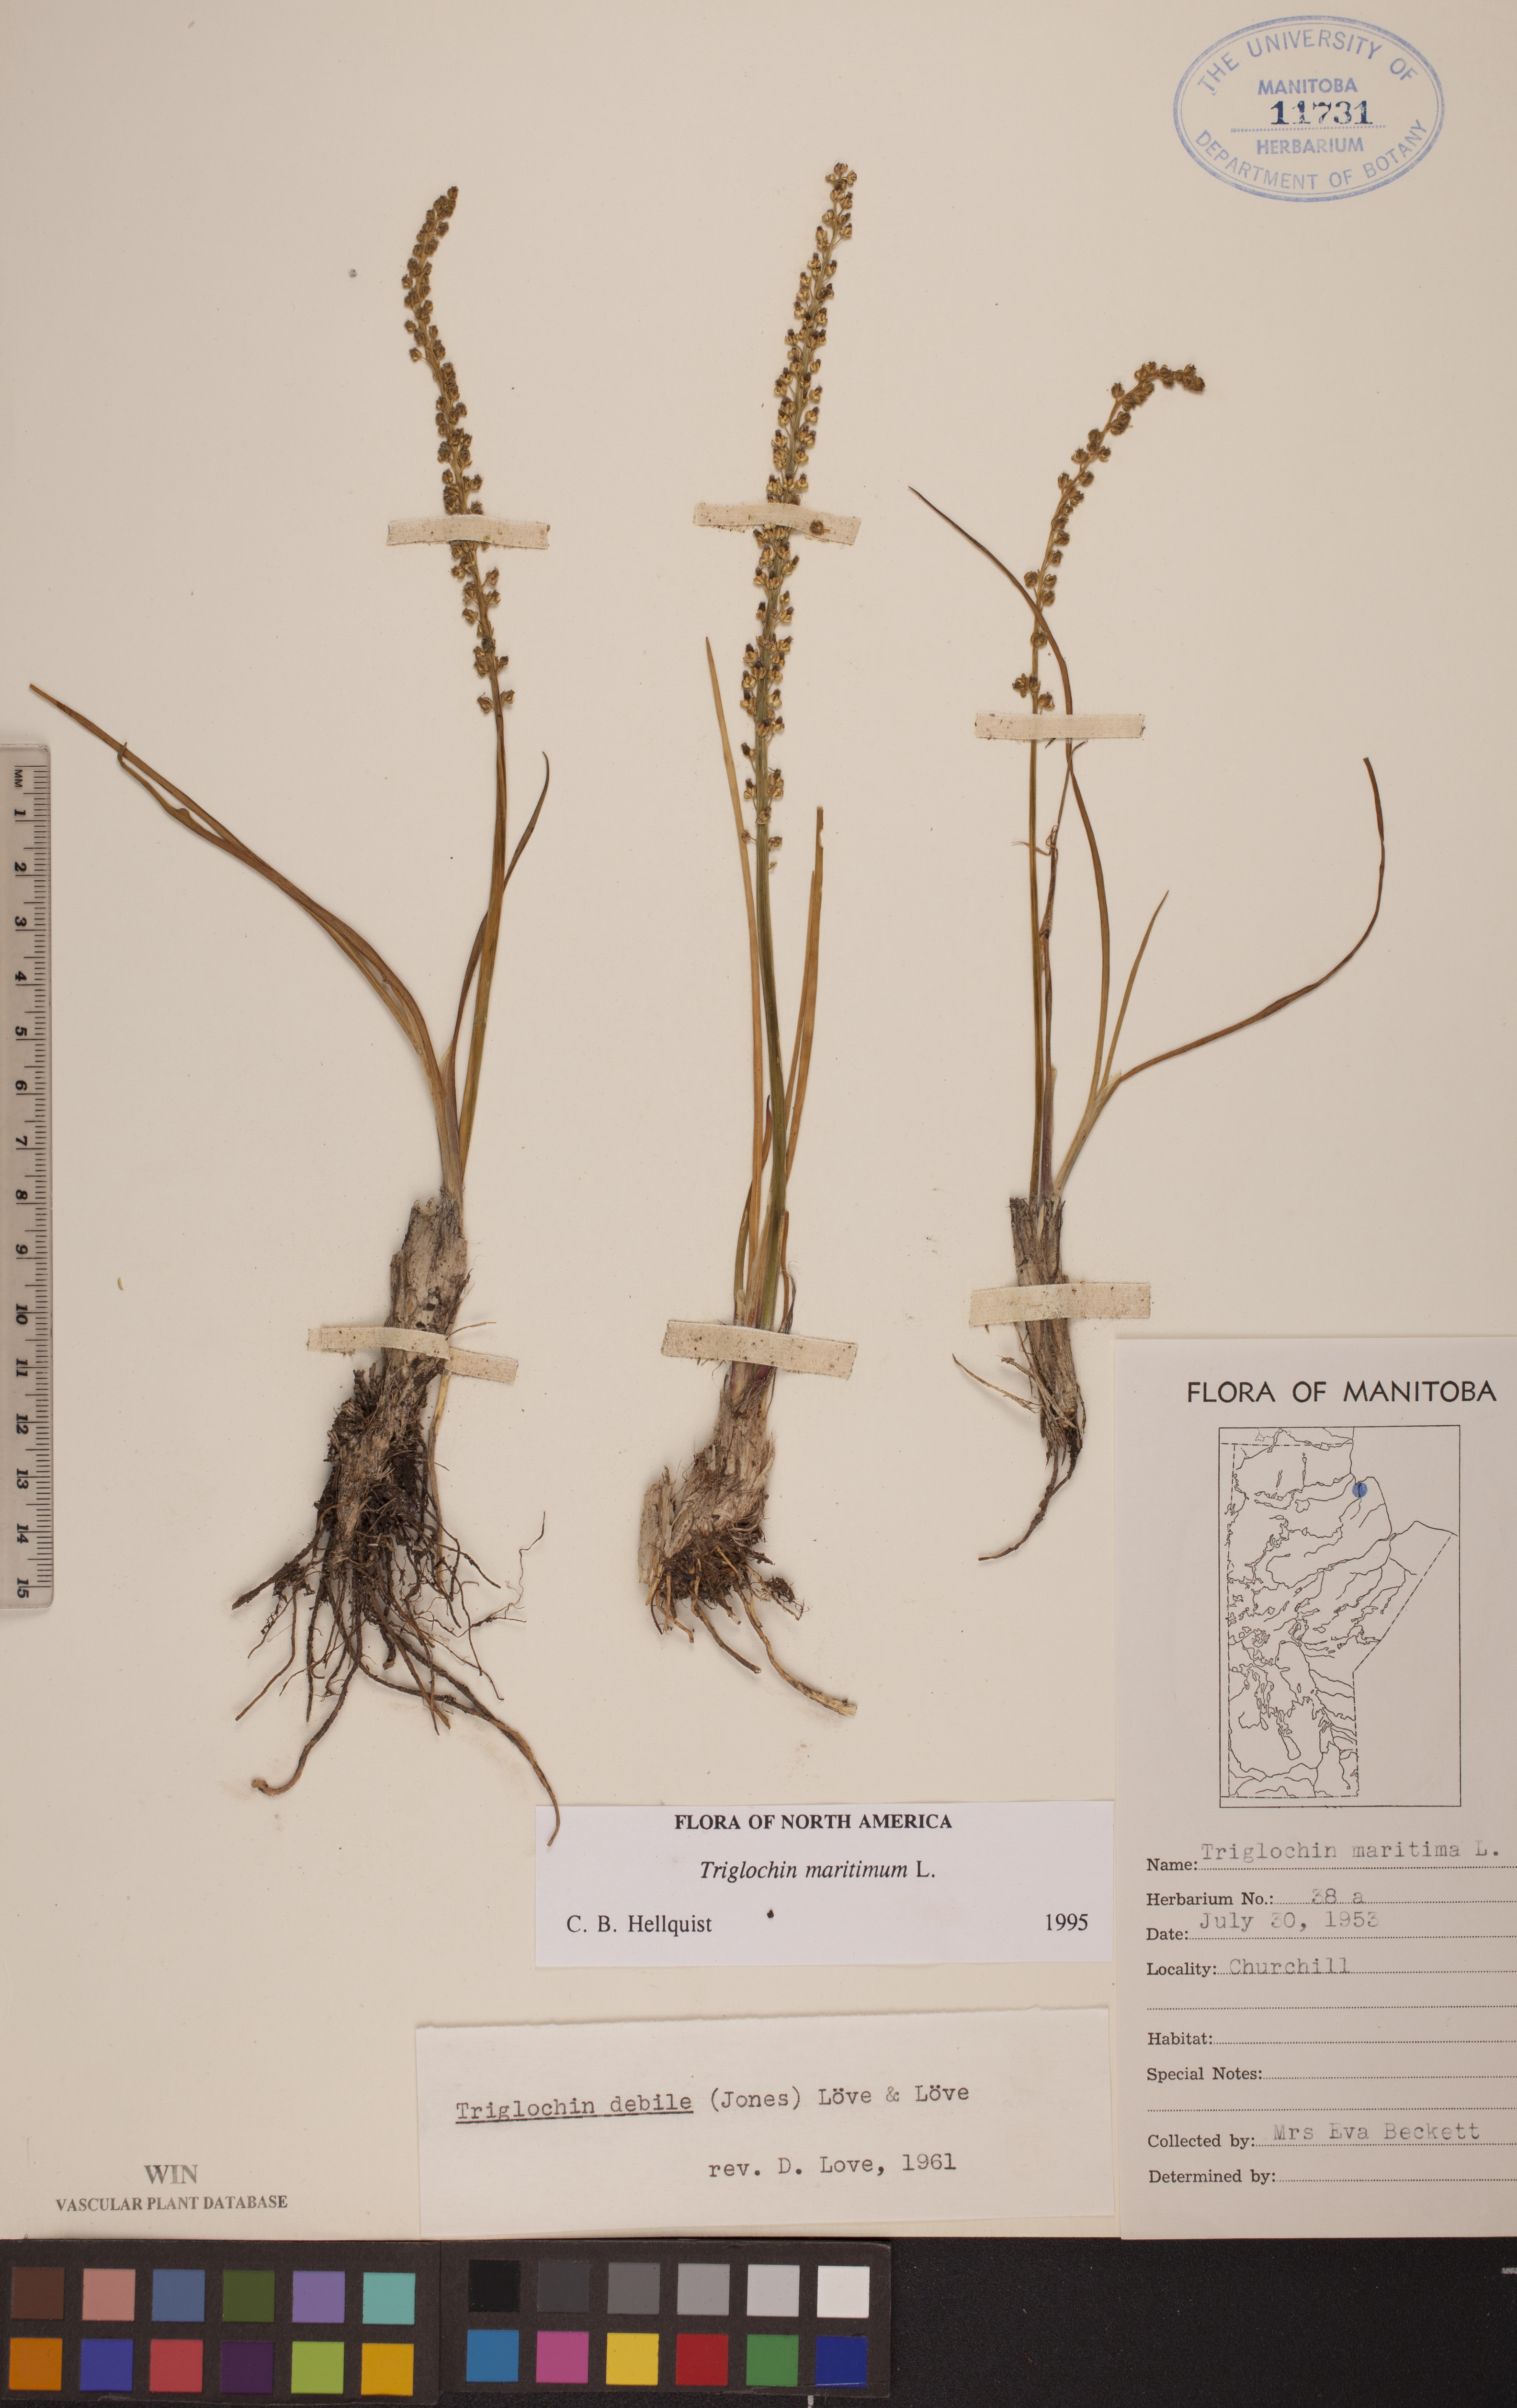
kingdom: Plantae
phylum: Tracheophyta
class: Liliopsida
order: Alismatales
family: Juncaginaceae
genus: Triglochin
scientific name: Triglochin maritima
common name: Sea arrowgrass
